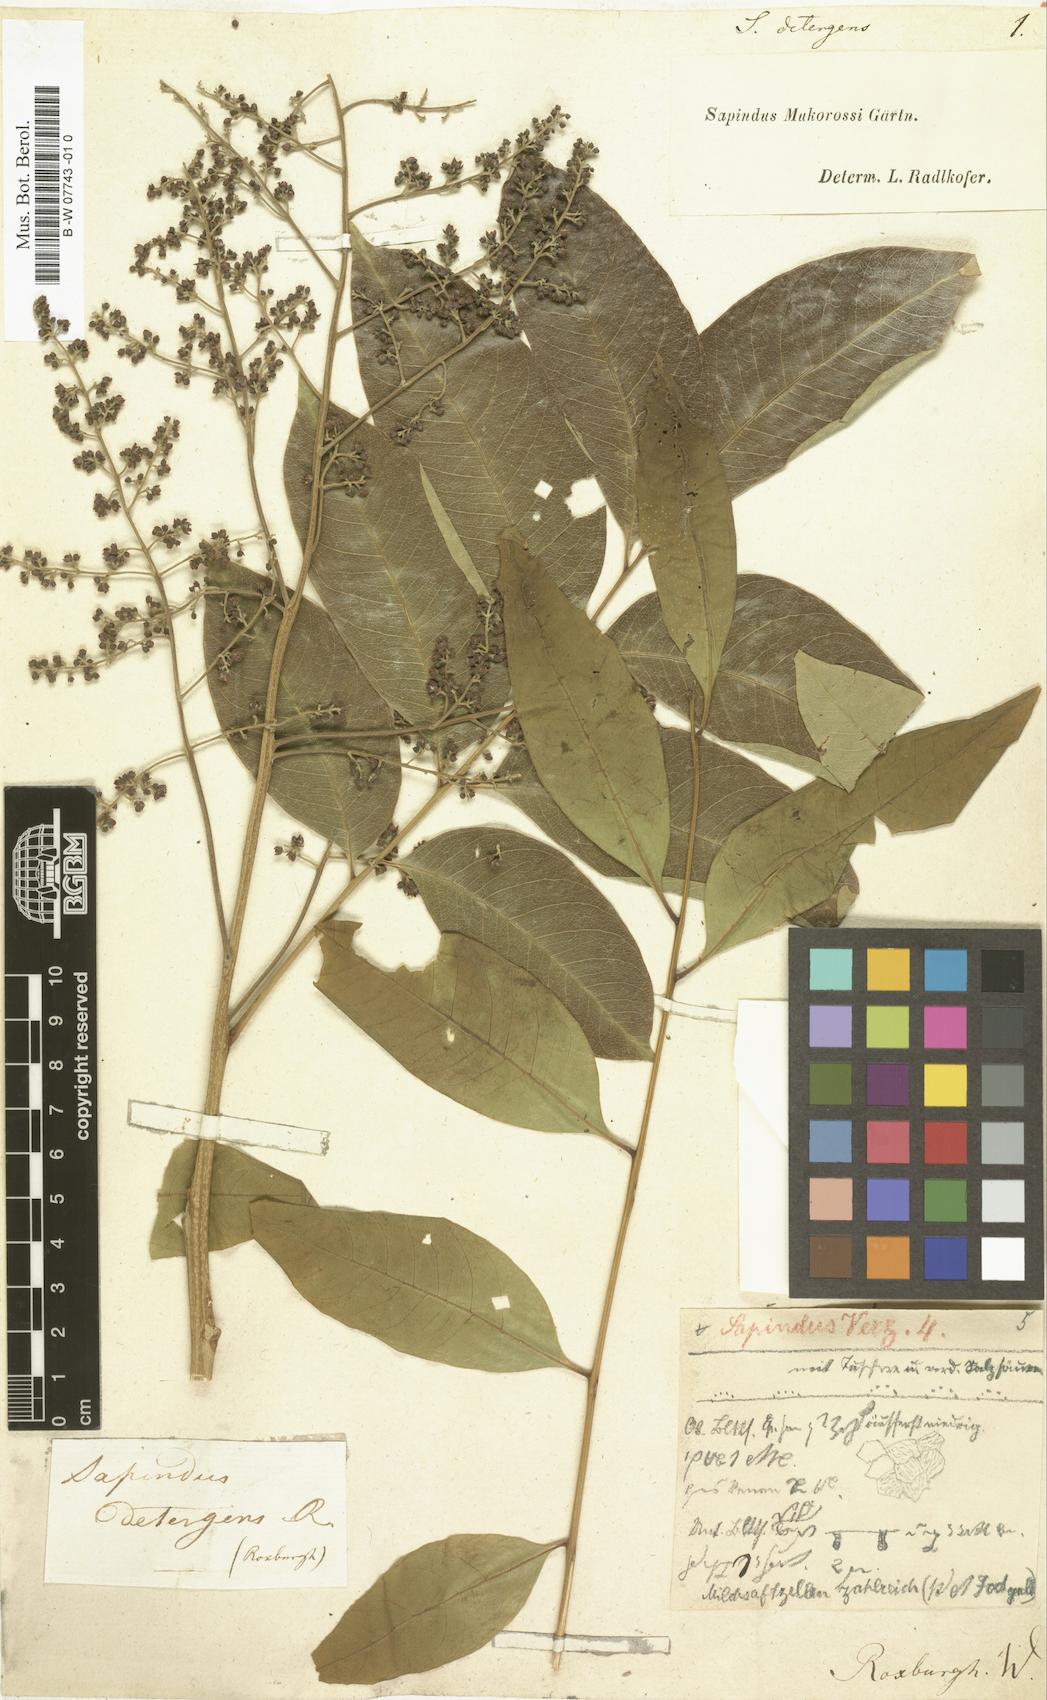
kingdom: Plantae
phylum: Tracheophyta
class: Magnoliopsida
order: Sapindales
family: Sapindaceae
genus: Sapindus
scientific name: Sapindus
